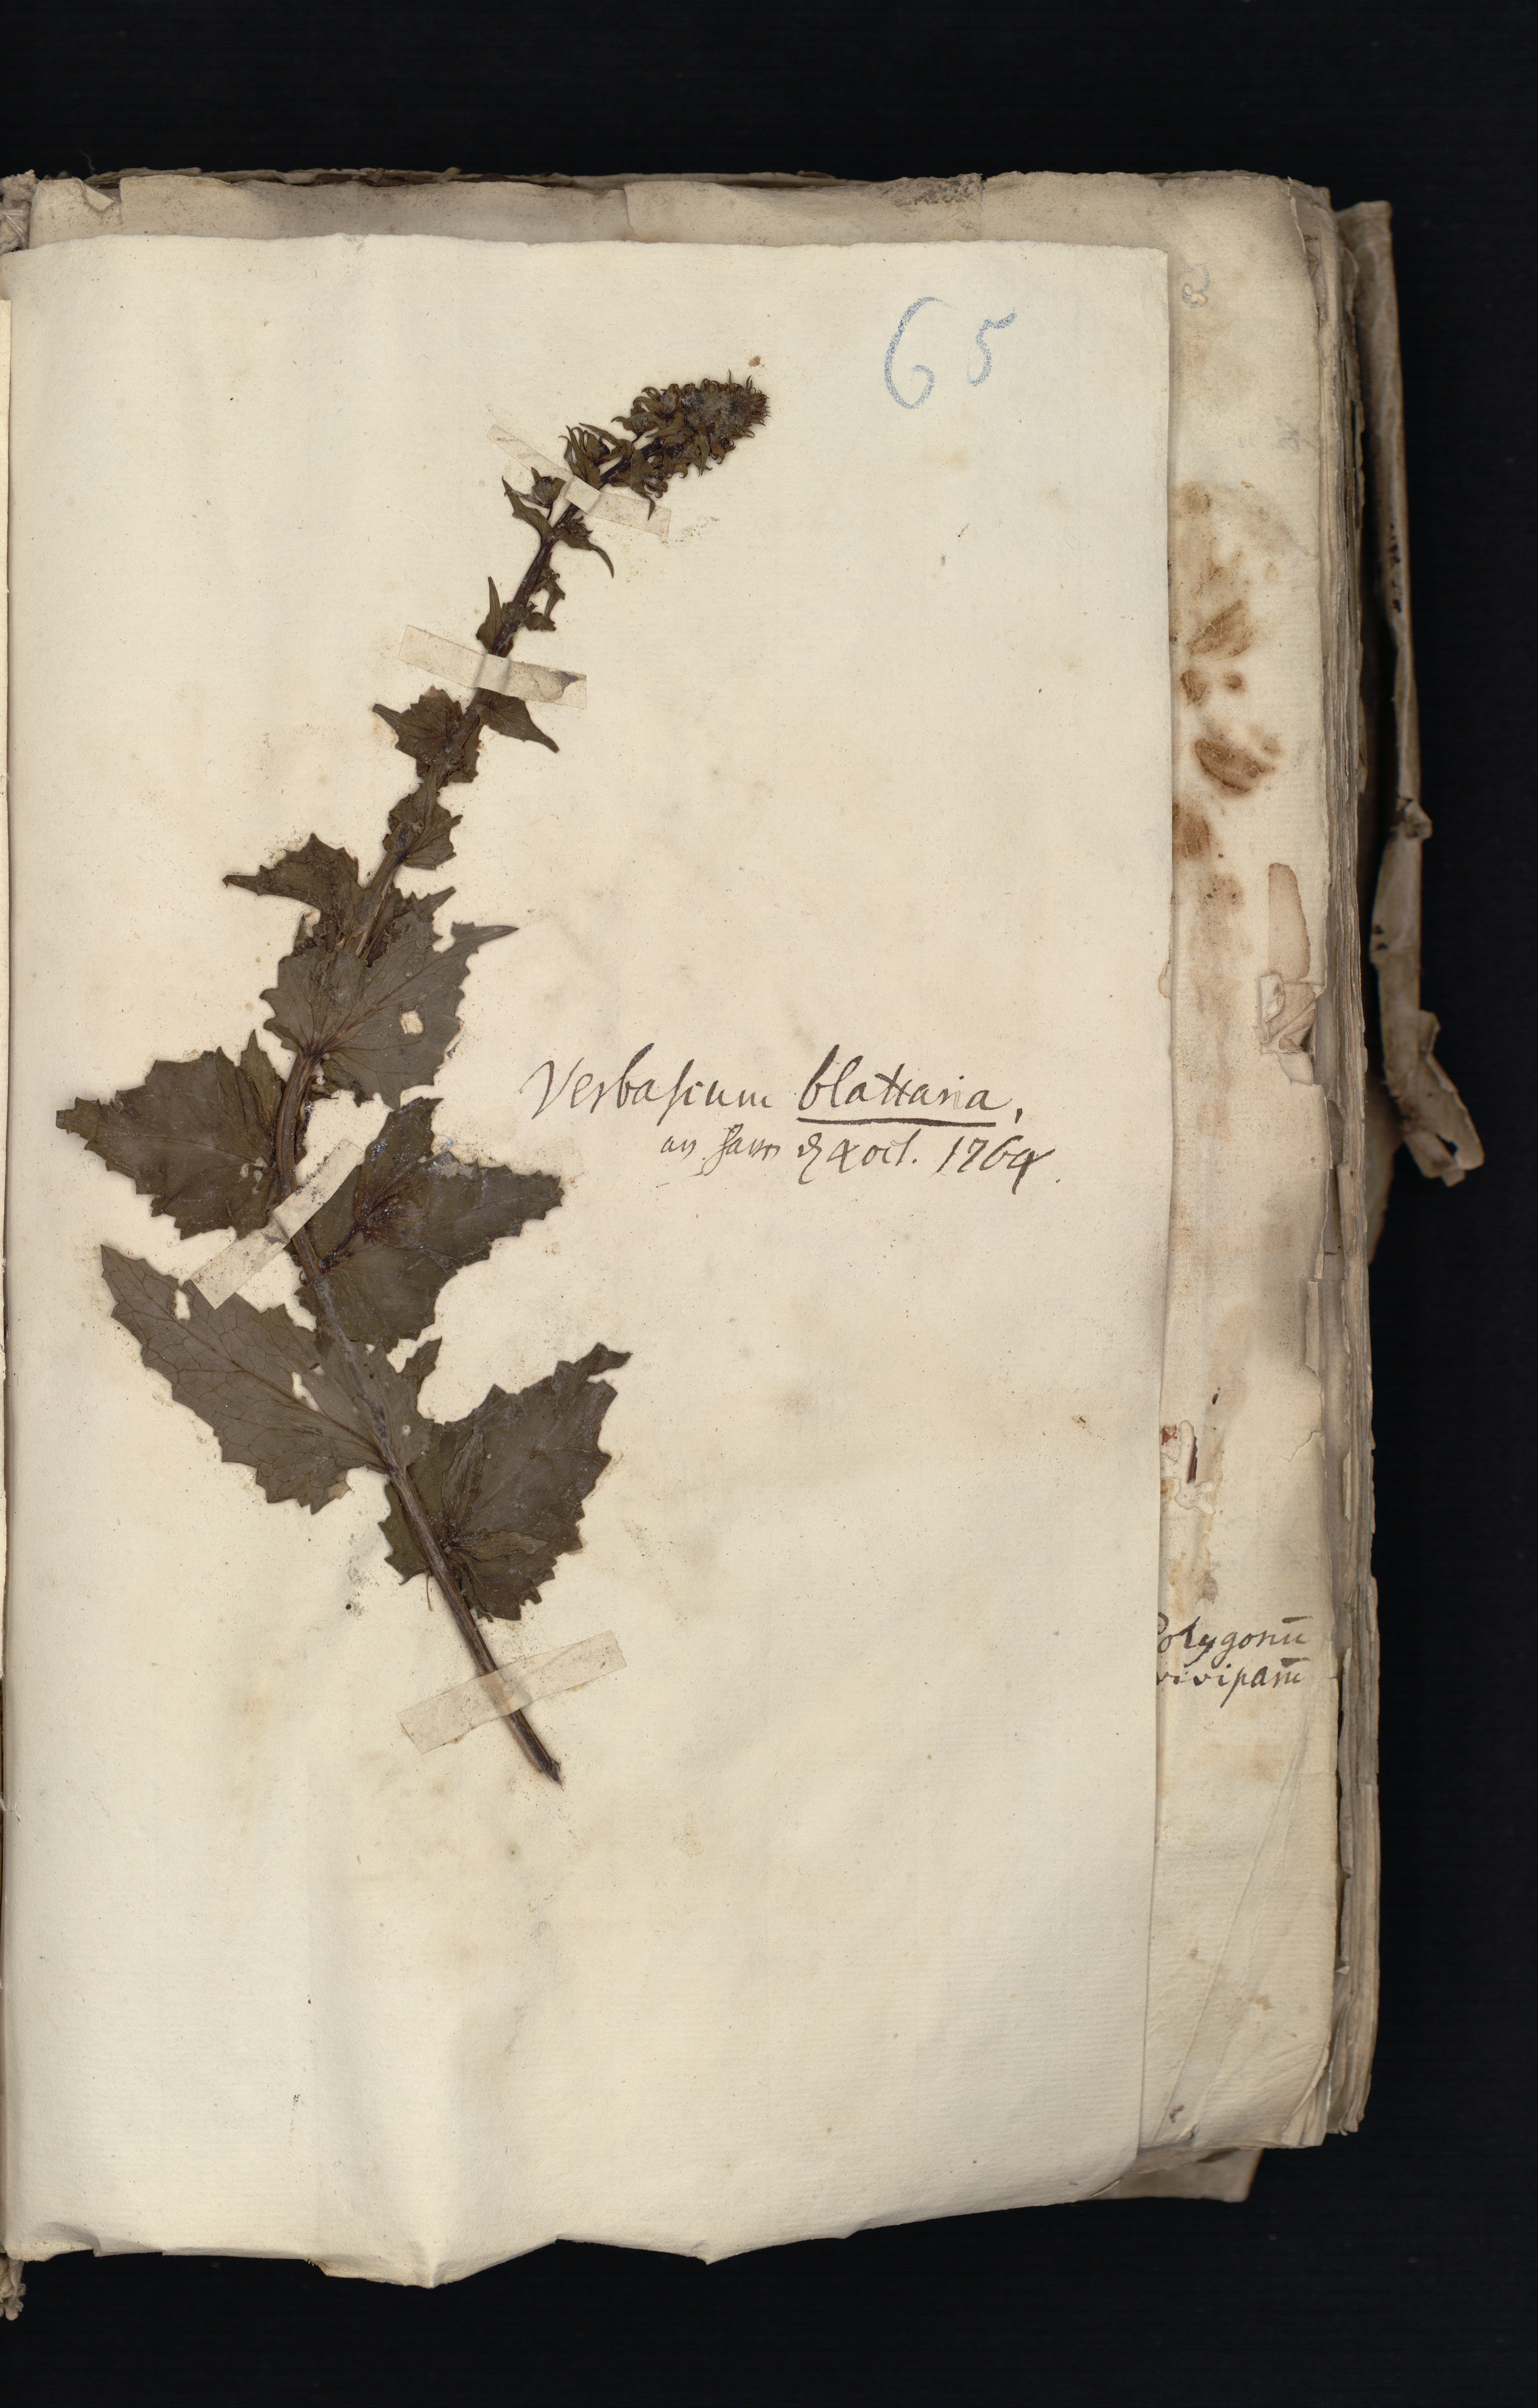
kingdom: Plantae
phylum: Tracheophyta
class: Magnoliopsida
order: Lamiales
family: Scrophulariaceae
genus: Verbascum
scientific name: Verbascum blattaria
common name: Moth mullein
